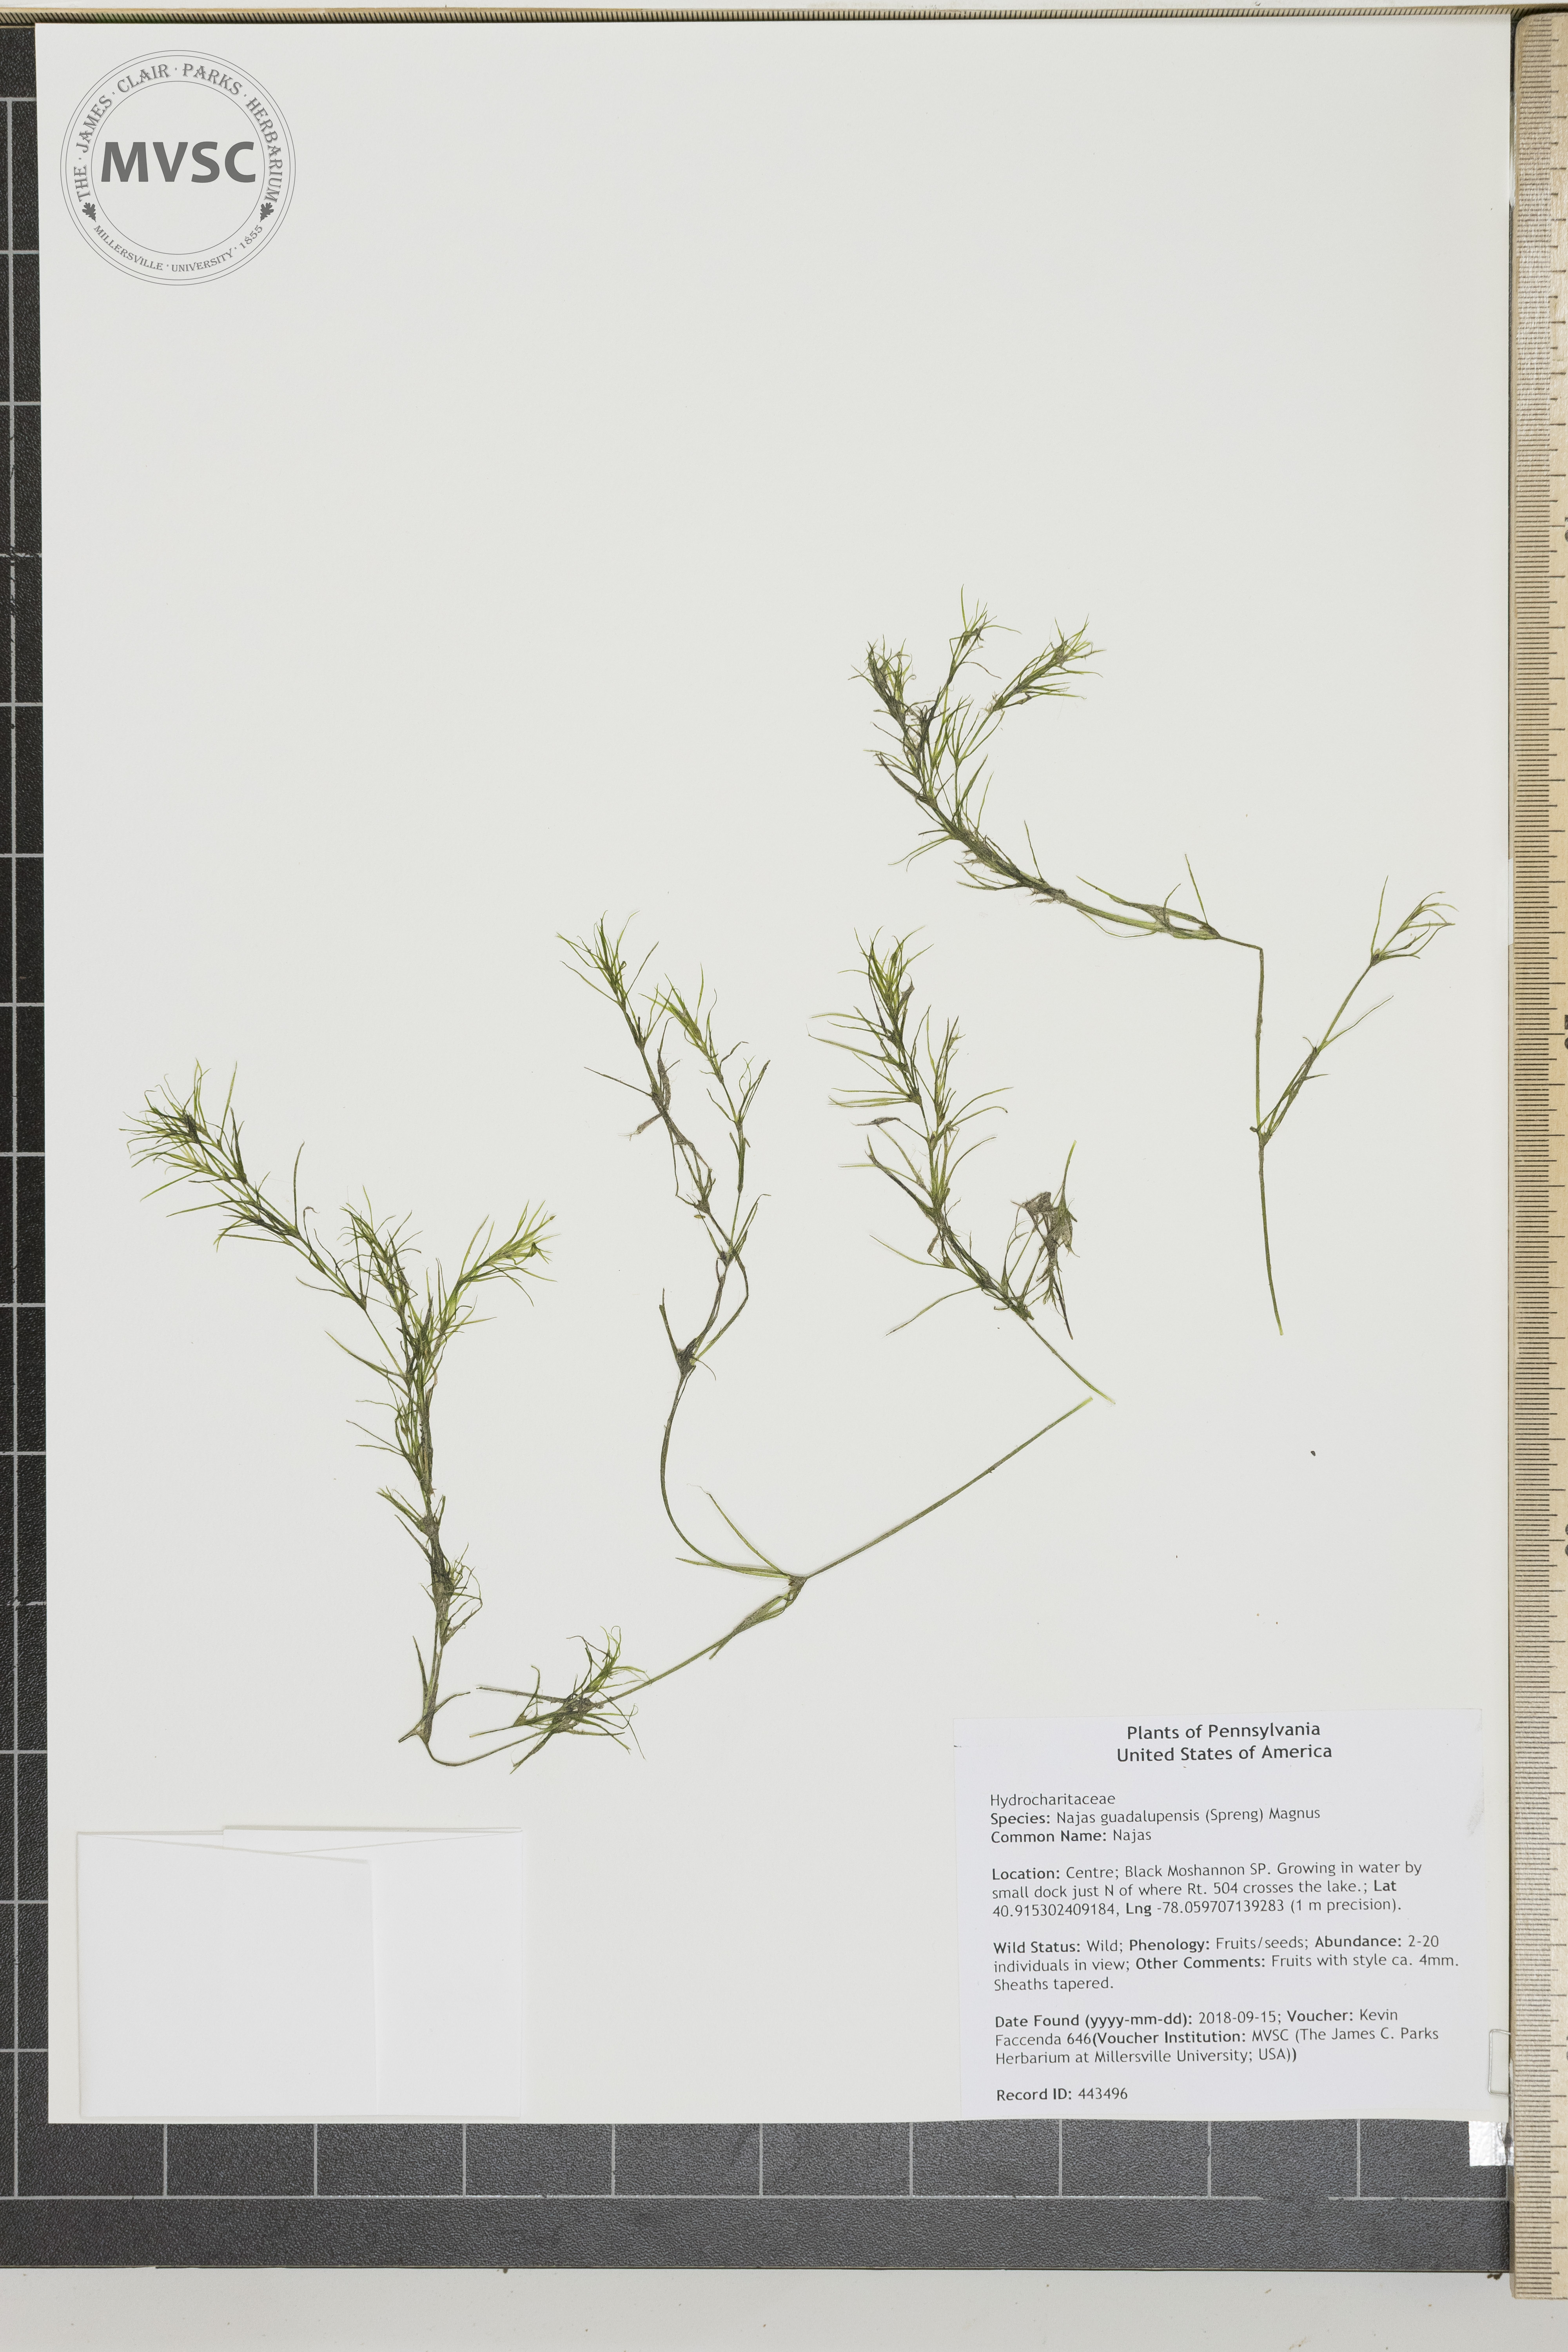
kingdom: Plantae
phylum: Tracheophyta
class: Liliopsida
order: Alismatales
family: Hydrocharitaceae
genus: Najas
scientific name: Najas guadalupensis
